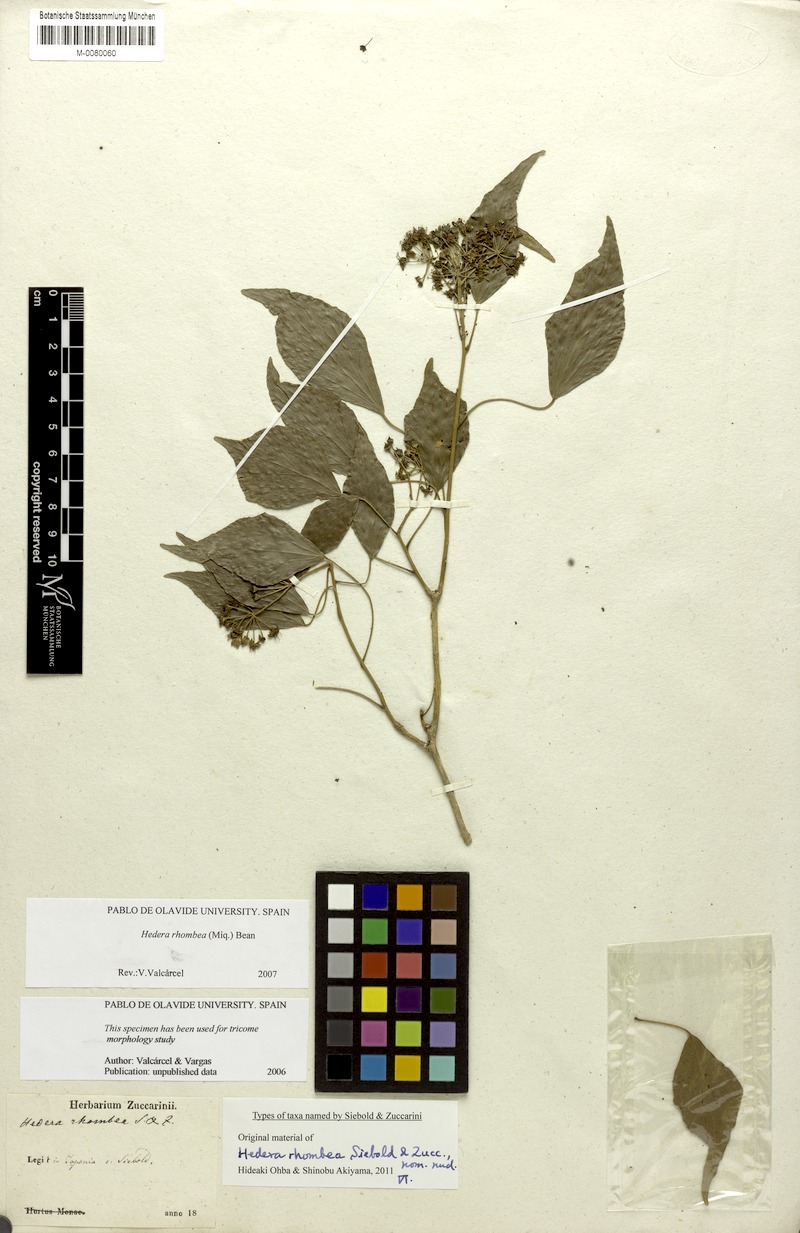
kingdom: Plantae
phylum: Tracheophyta
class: Magnoliopsida
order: Apiales
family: Araliaceae
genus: Hedera
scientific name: Hedera rhombea
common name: Japanese ivy
